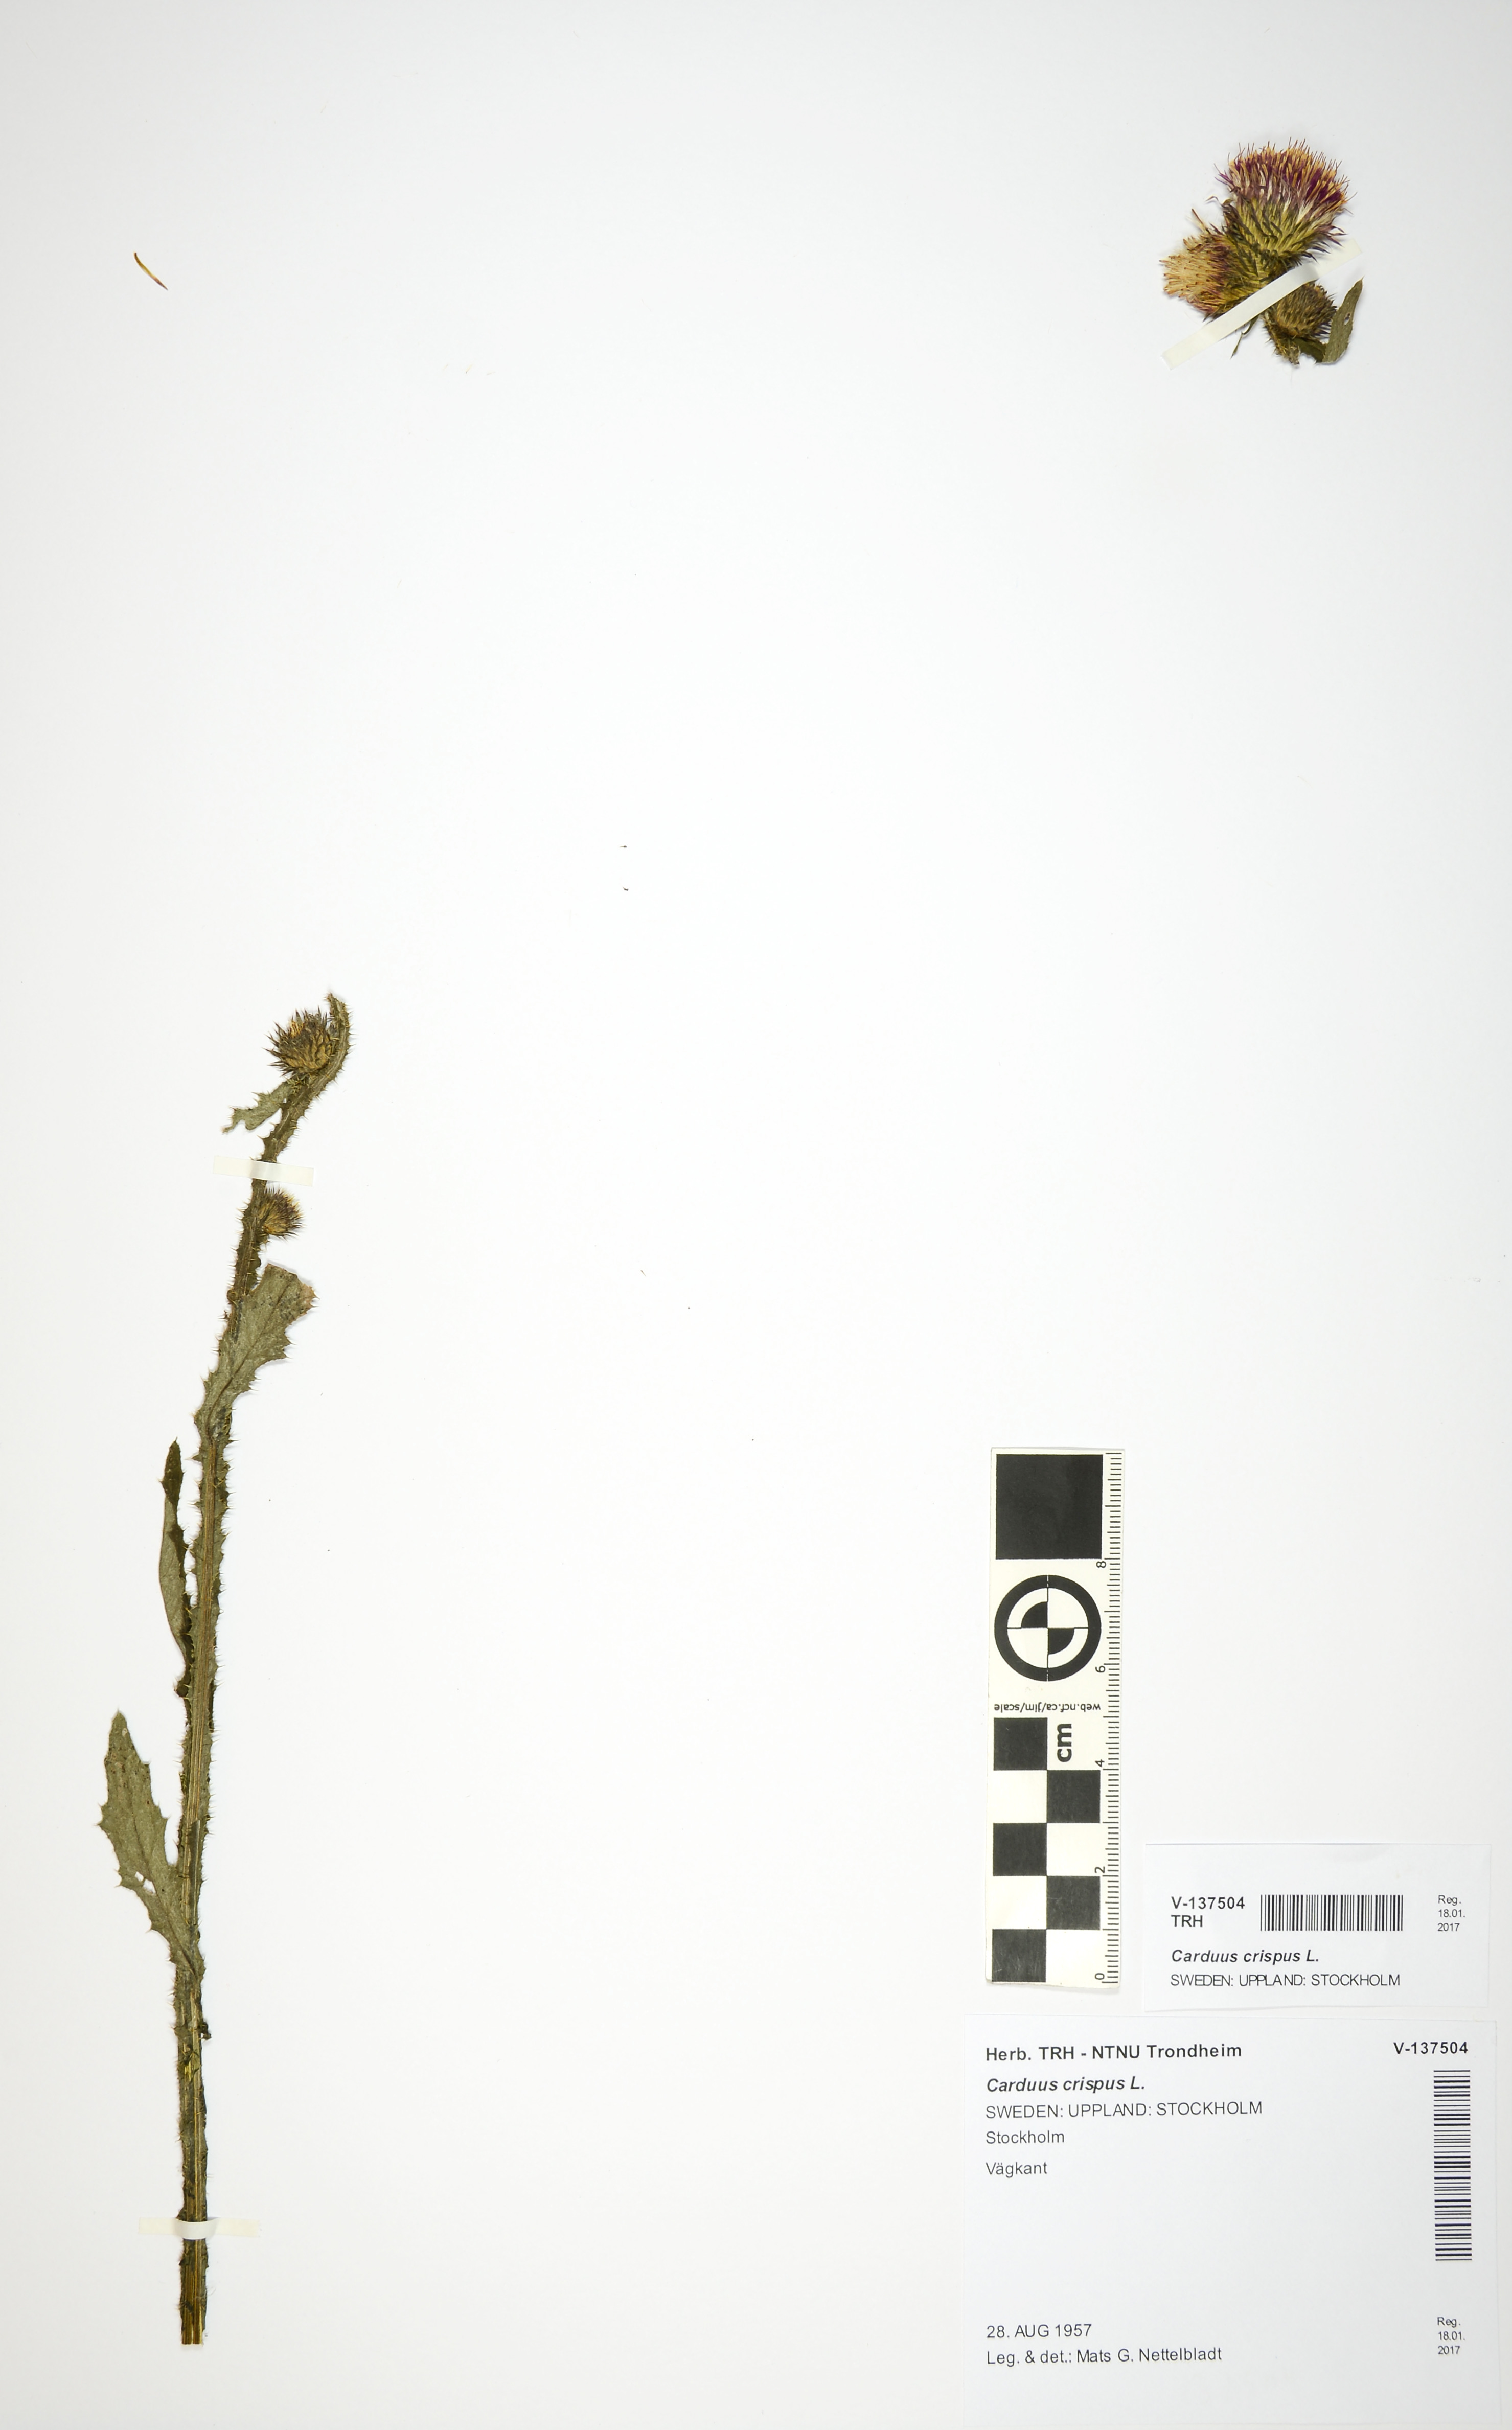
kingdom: Plantae
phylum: Tracheophyta
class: Magnoliopsida
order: Asterales
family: Asteraceae
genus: Carduus
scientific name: Carduus crispus
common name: Welted thistle
